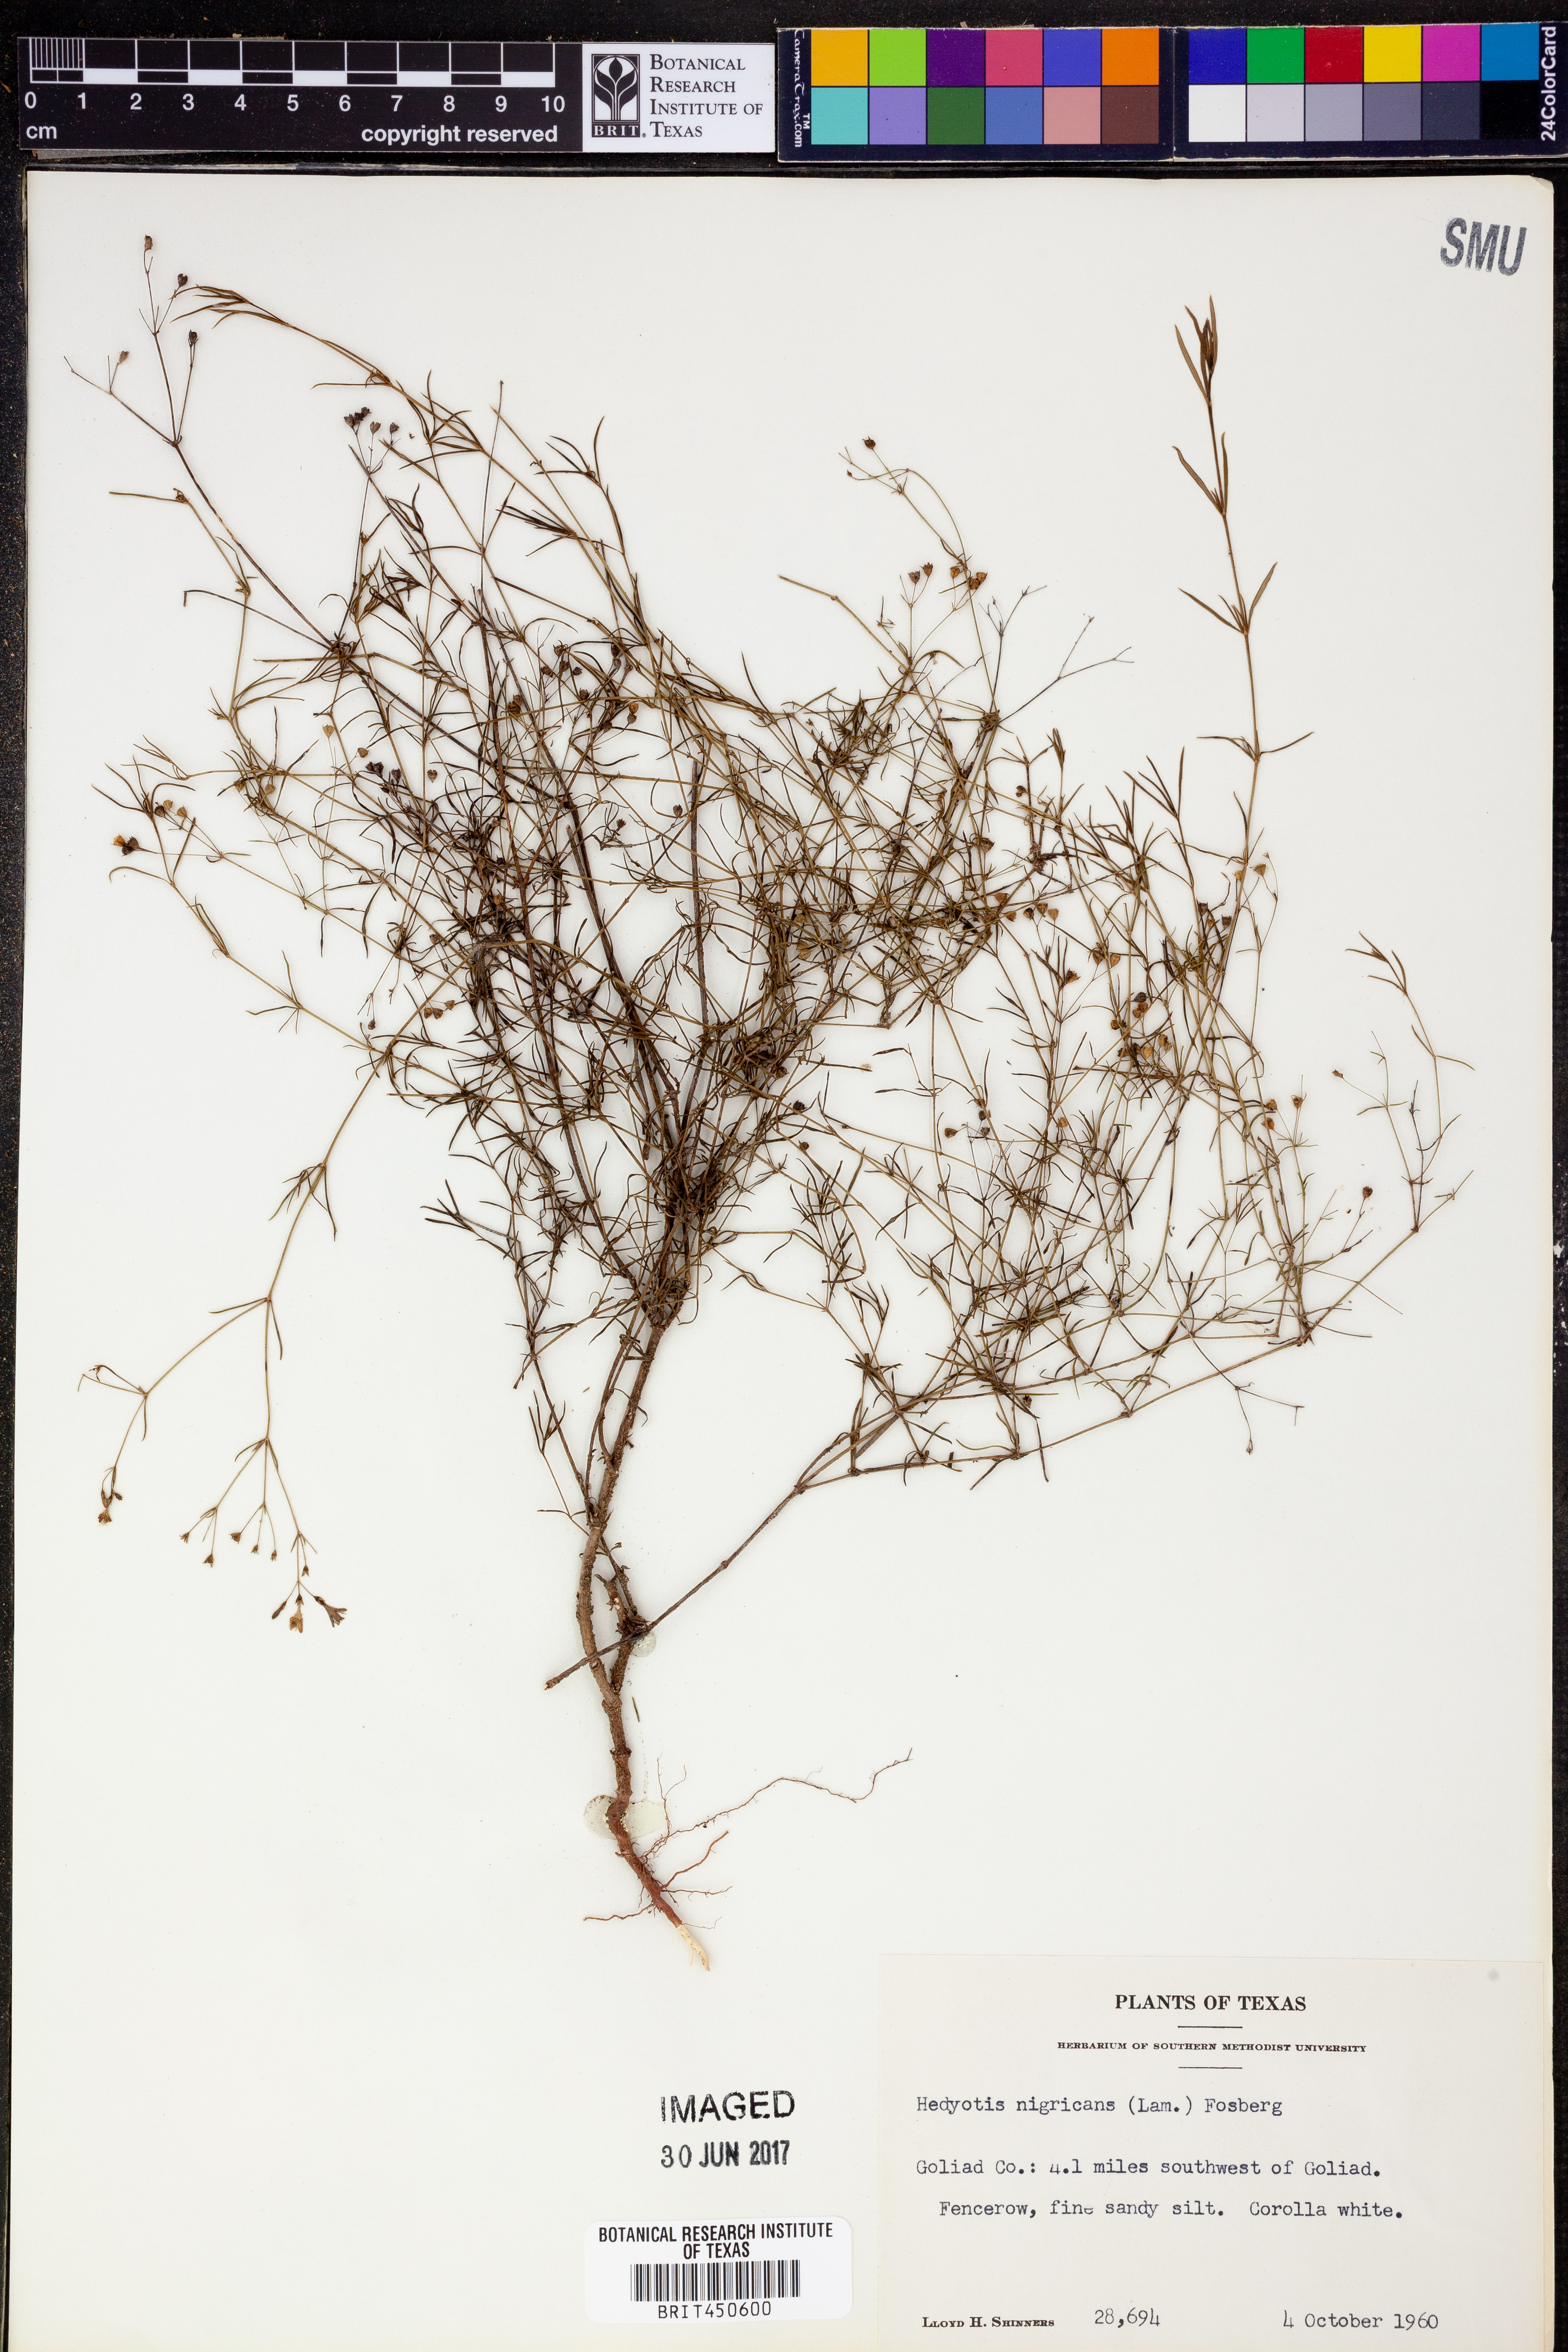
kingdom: Plantae
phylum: Tracheophyta
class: Magnoliopsida
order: Gentianales
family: Rubiaceae
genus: Stenaria
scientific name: Stenaria nigricans
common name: Diamondflowers
